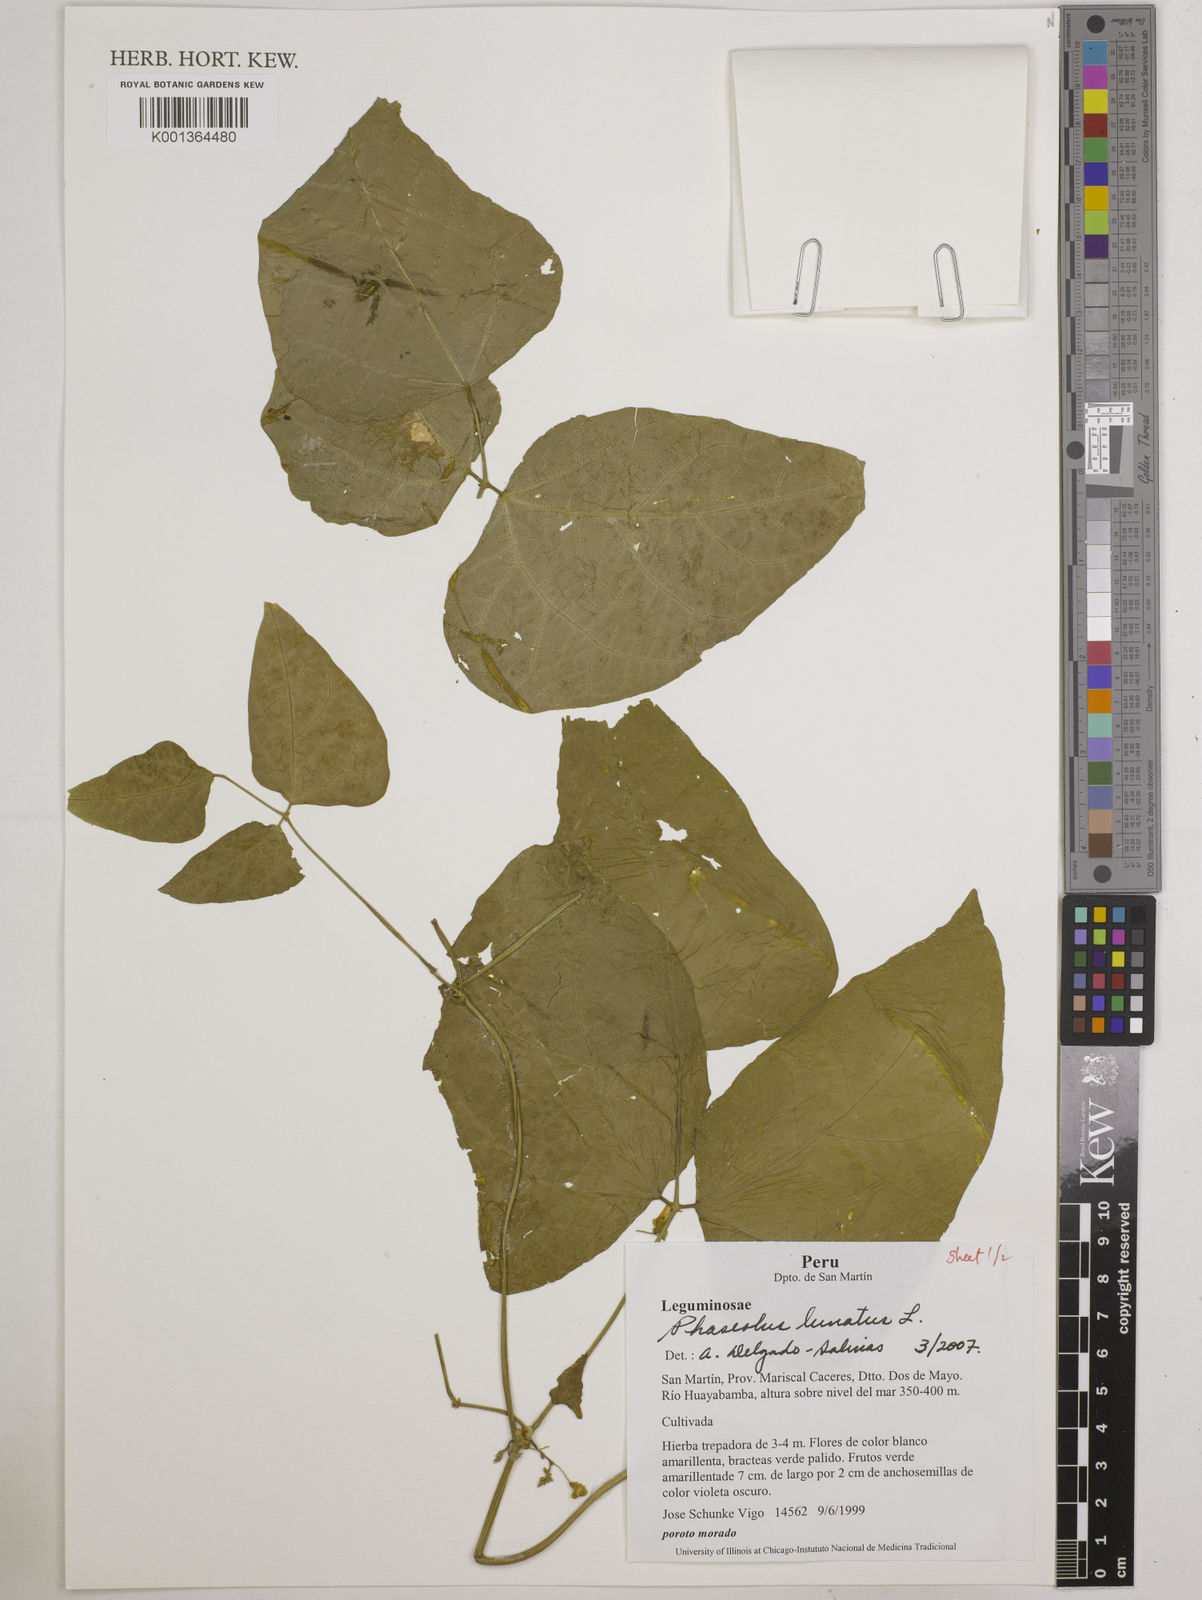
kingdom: Plantae
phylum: Tracheophyta
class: Magnoliopsida
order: Fabales
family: Fabaceae
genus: Phaseolus
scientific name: Phaseolus lunatus
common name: Sieva bean
